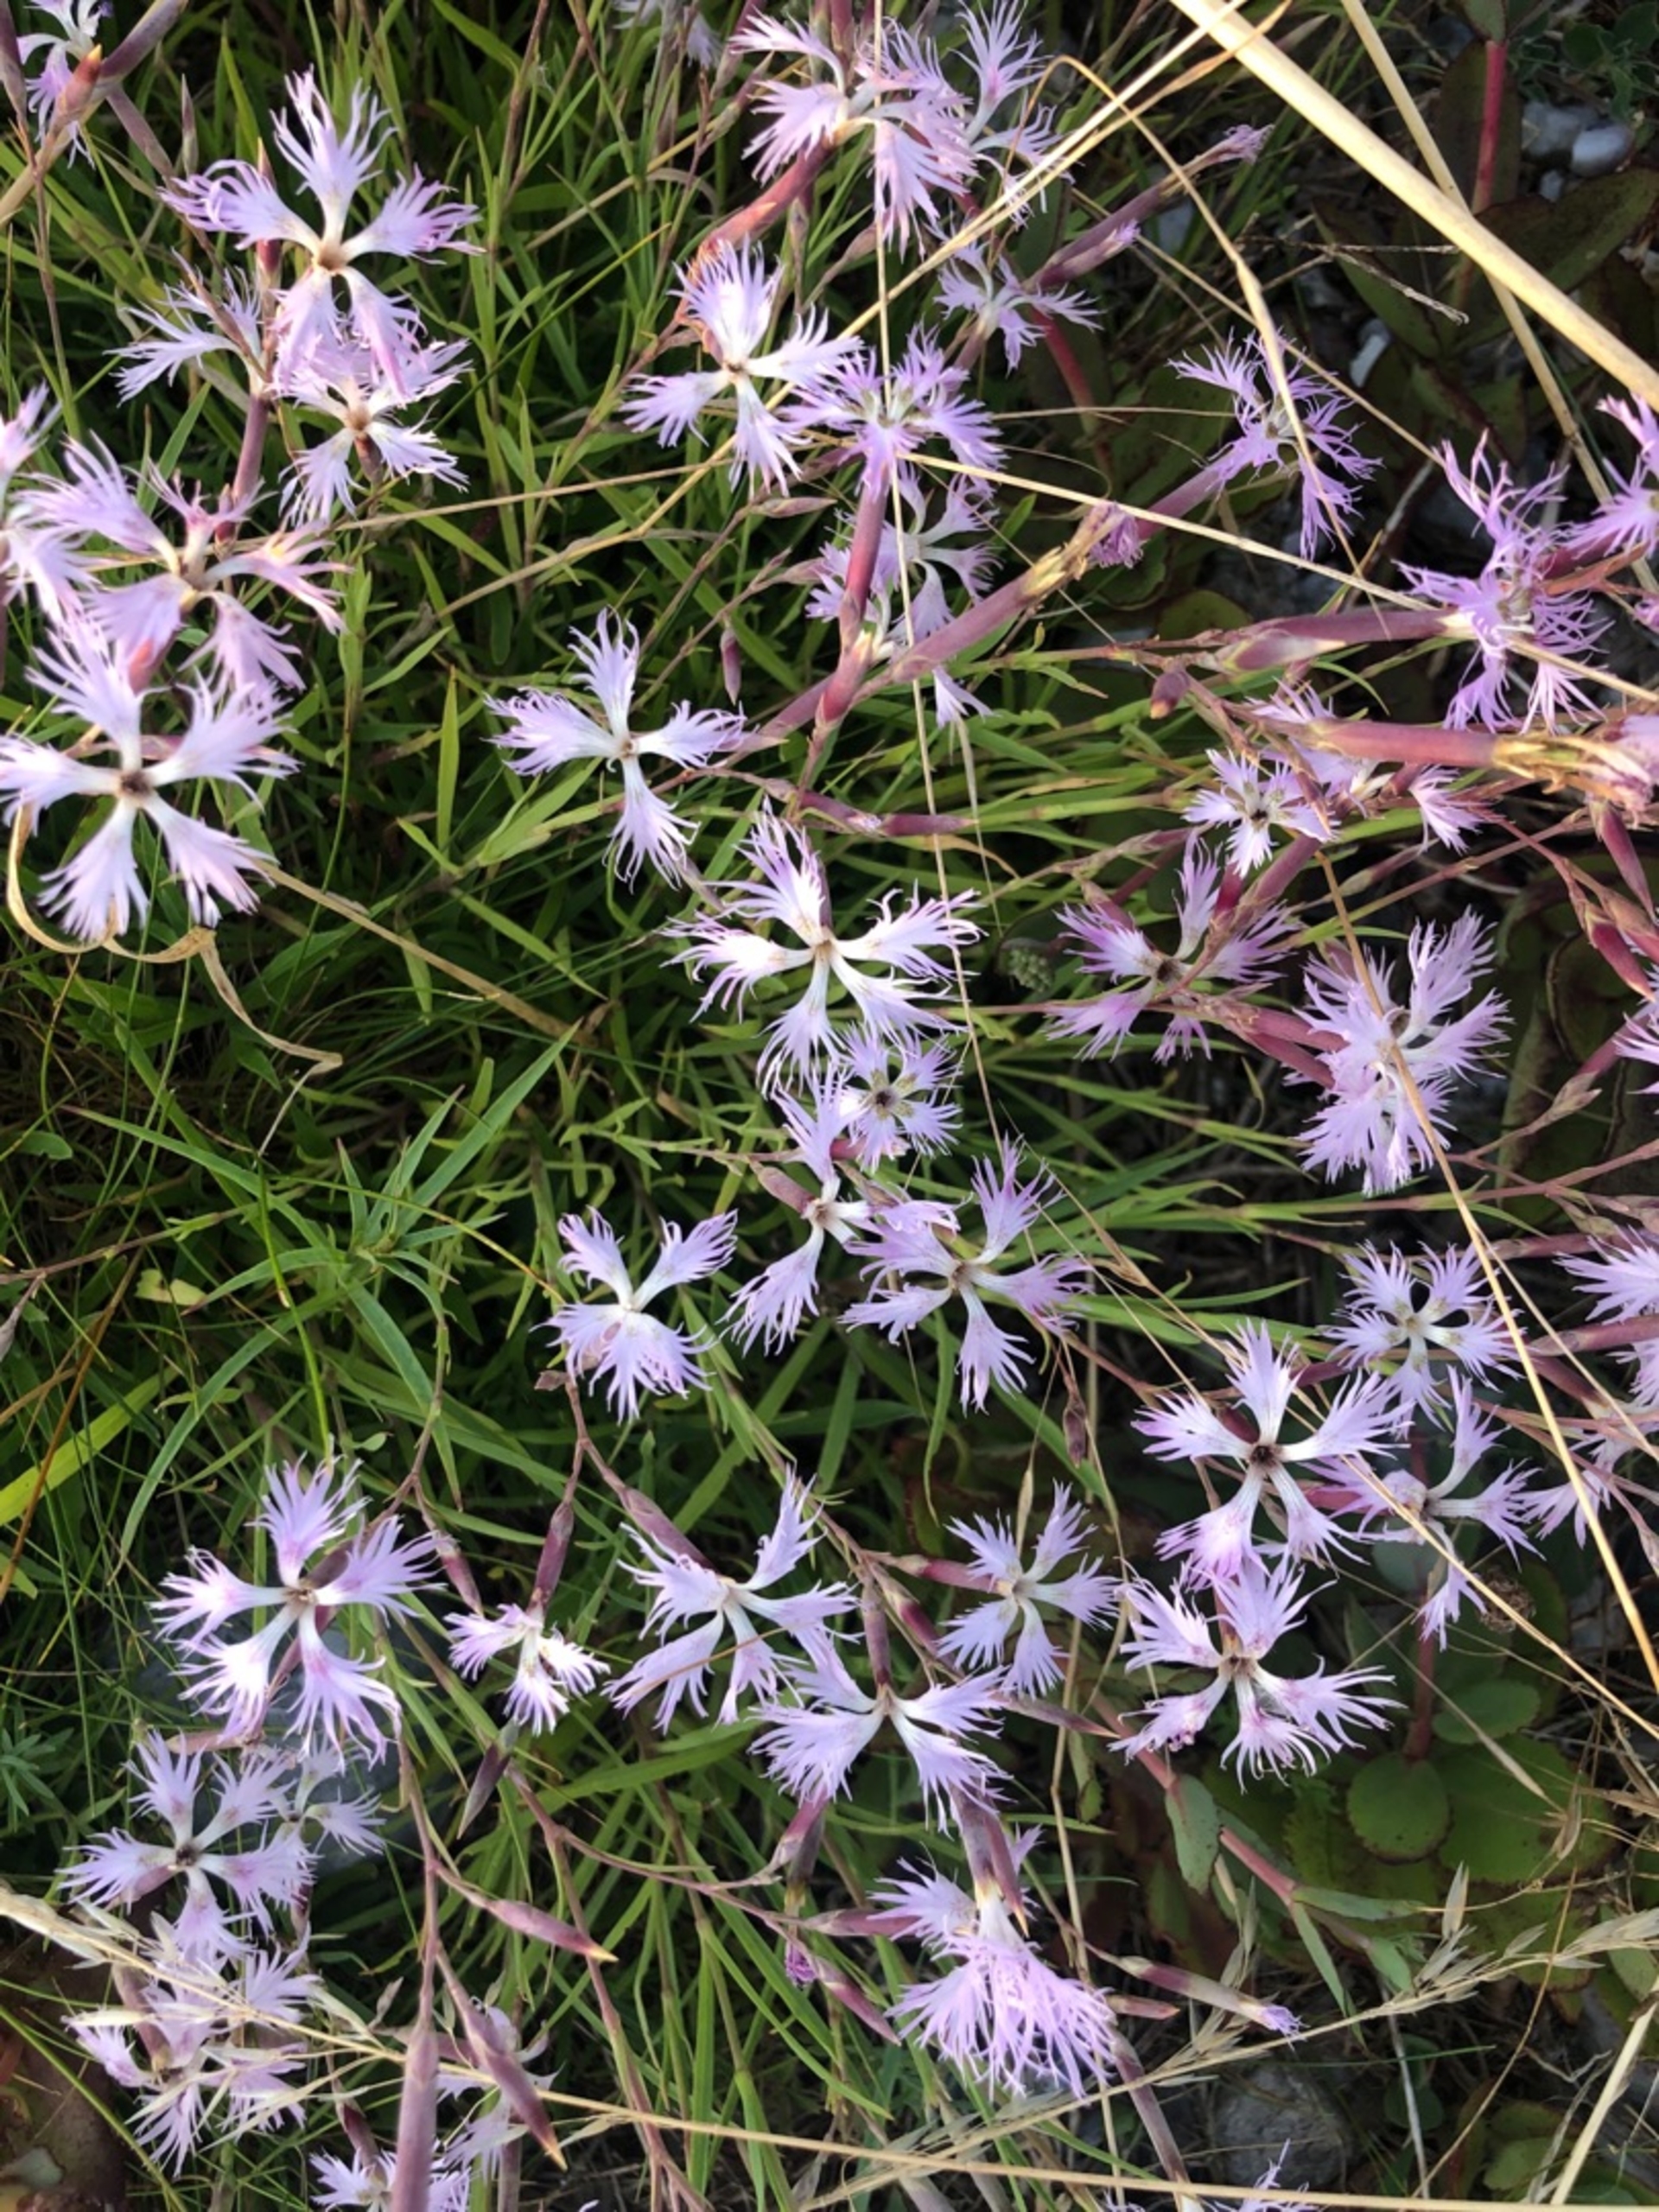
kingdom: Plantae
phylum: Tracheophyta
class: Magnoliopsida
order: Caryophyllales
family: Caryophyllaceae
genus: Dianthus
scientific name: Dianthus superbus
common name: Strand-nellike
